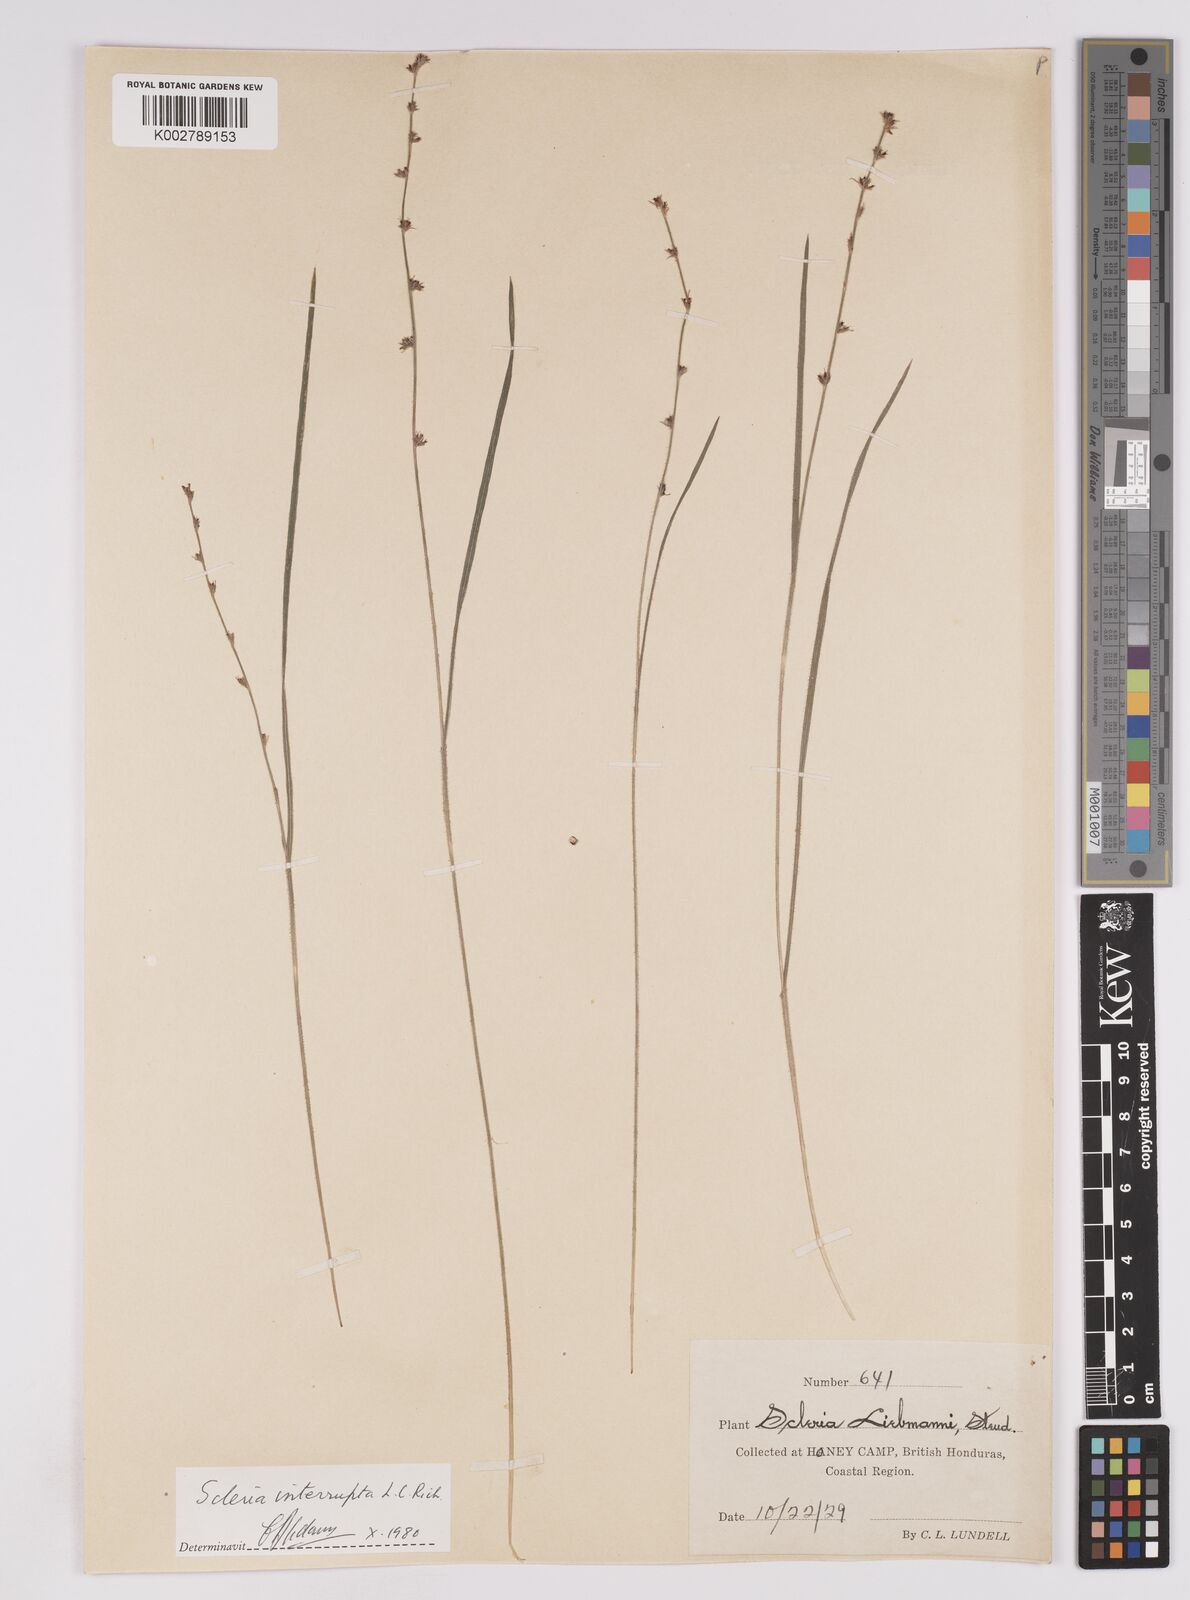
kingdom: Plantae
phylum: Tracheophyta
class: Liliopsida
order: Poales
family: Cyperaceae
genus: Scleria
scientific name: Scleria interrupta
